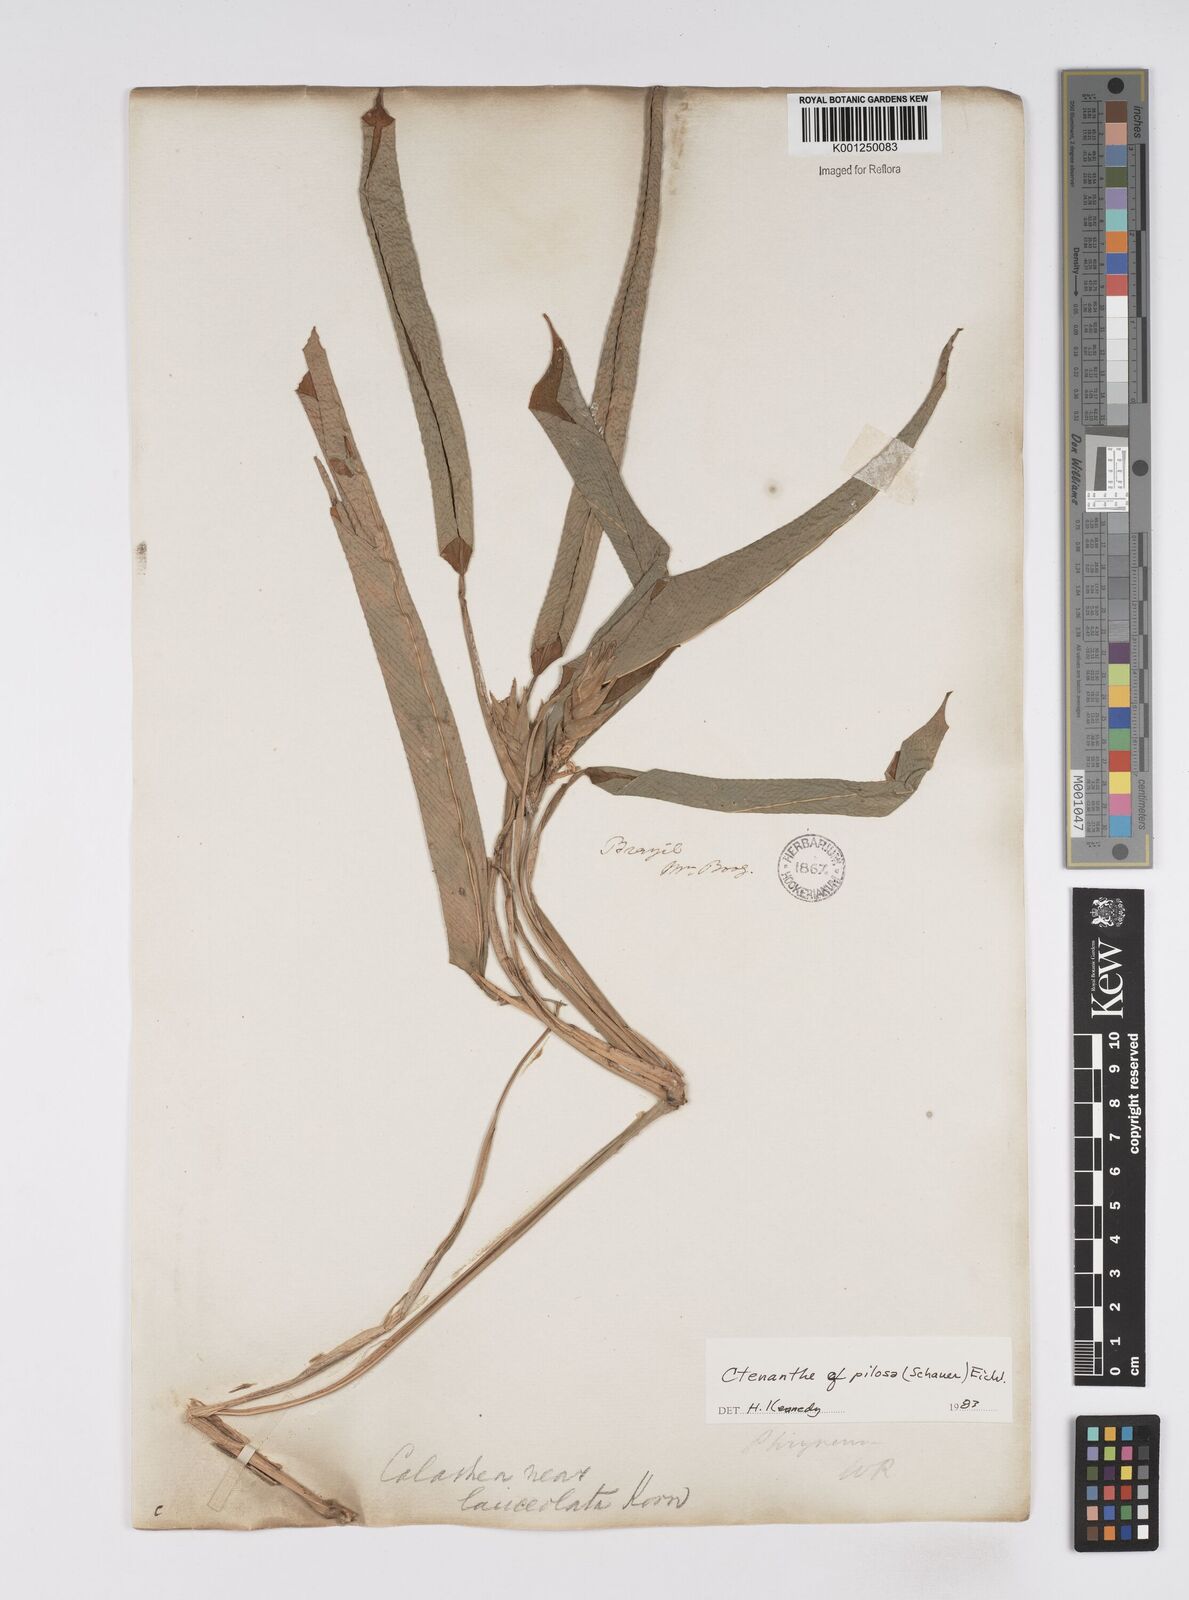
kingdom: Plantae
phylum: Tracheophyta
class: Liliopsida
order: Zingiberales
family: Marantaceae
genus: Ctenanthe
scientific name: Ctenanthe marantifolia
